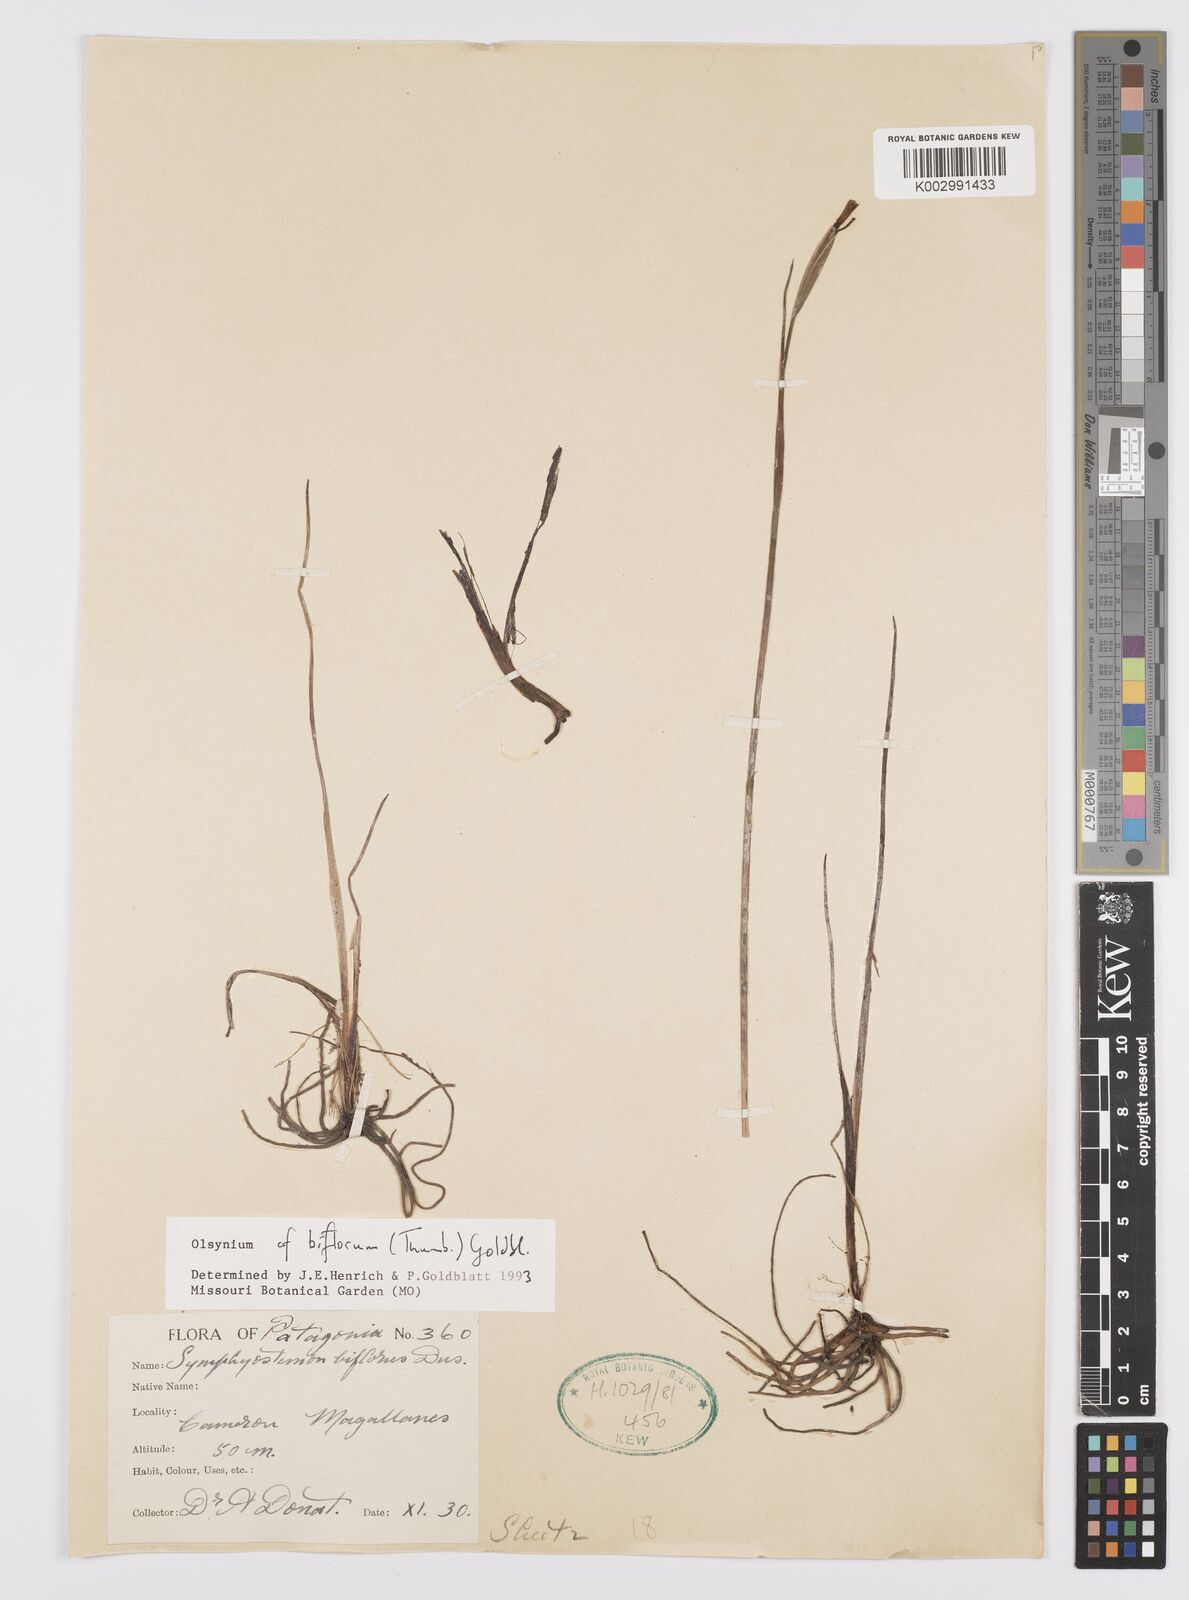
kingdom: Plantae
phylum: Tracheophyta
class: Liliopsida
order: Asparagales
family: Iridaceae
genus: Olsynium
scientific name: Olsynium biflorum
